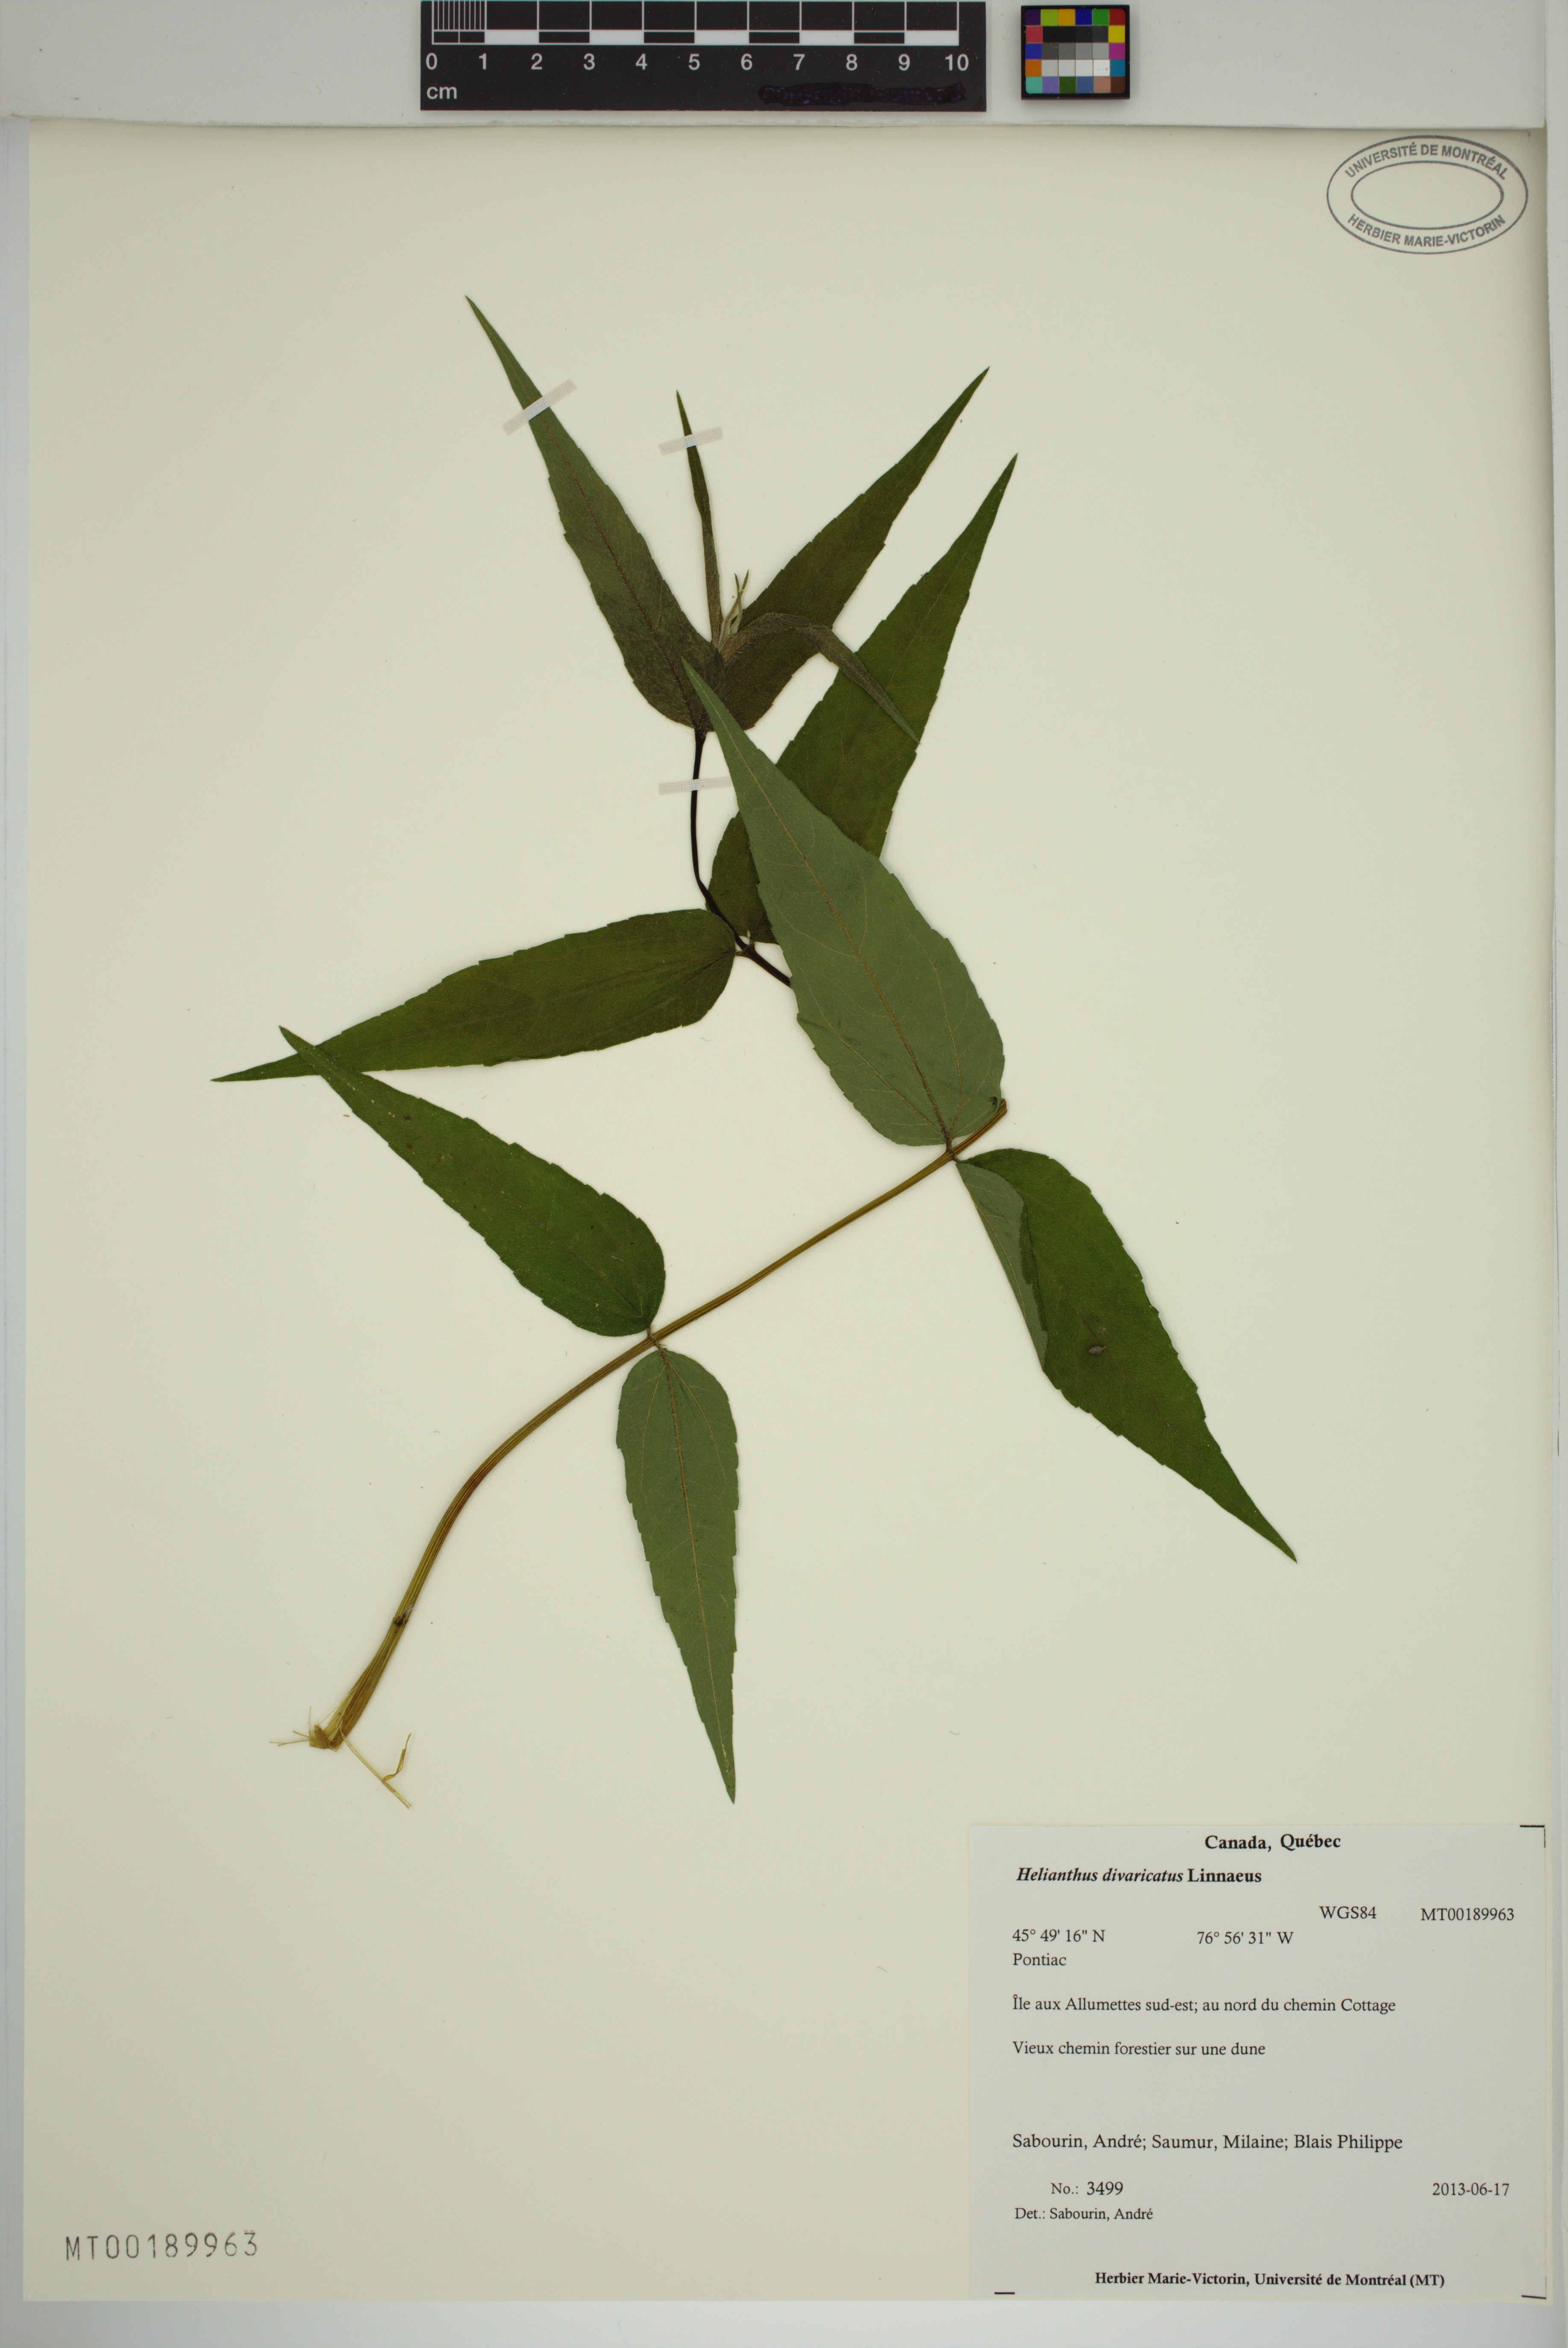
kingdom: Plantae
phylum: Tracheophyta
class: Magnoliopsida
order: Asterales
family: Asteraceae
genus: Helianthus
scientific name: Helianthus divaricatus
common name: Divergent sunflower
